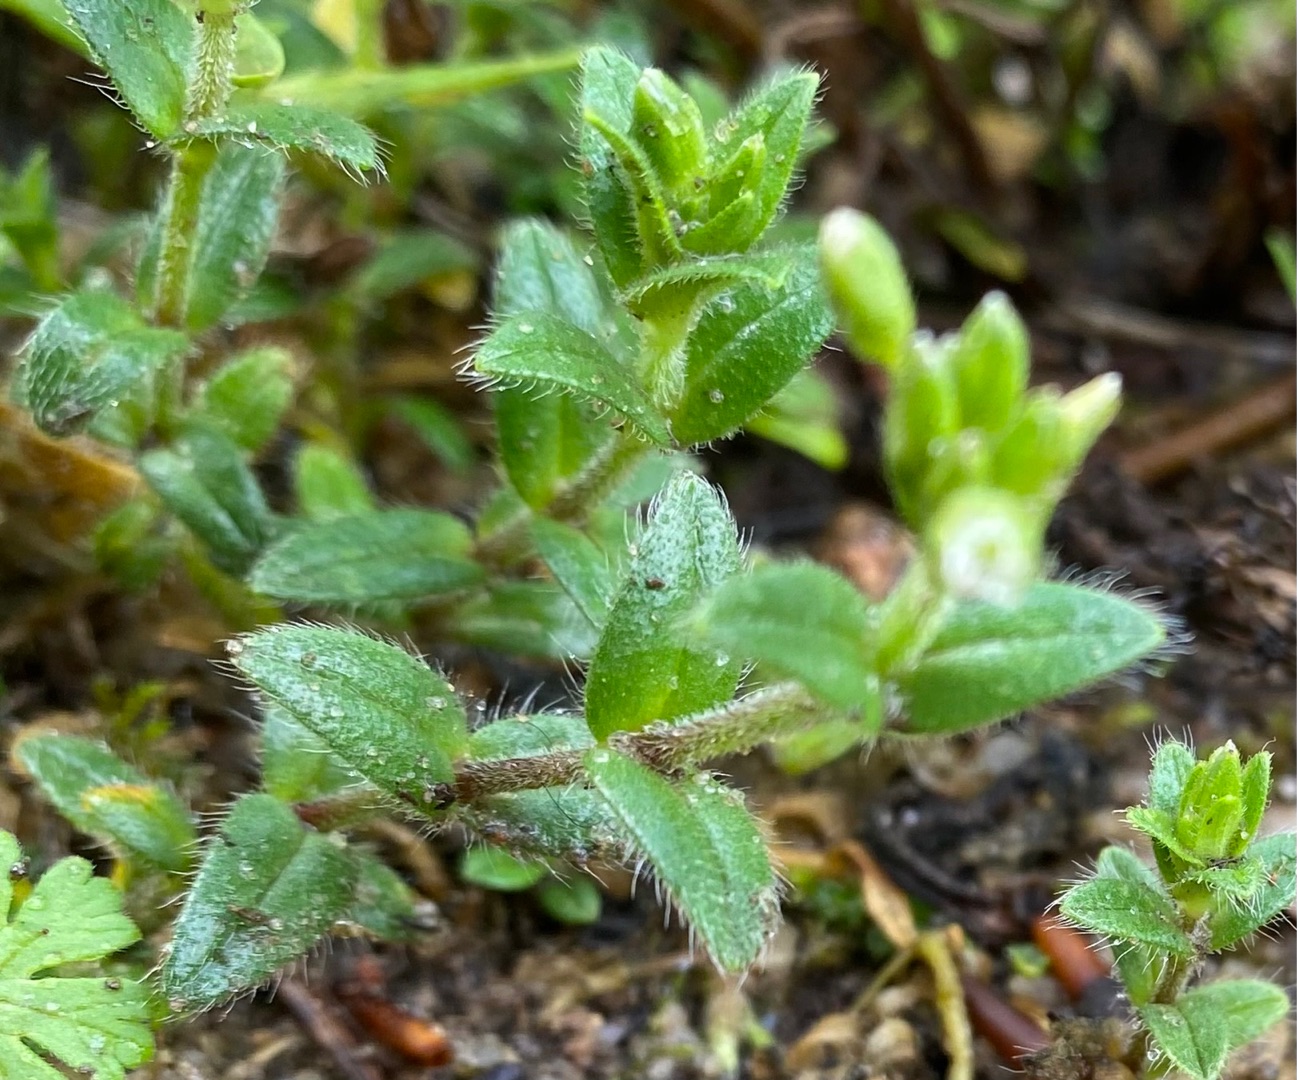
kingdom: Plantae
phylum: Tracheophyta
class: Magnoliopsida
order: Caryophyllales
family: Caryophyllaceae
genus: Cerastium
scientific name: Cerastium fontanum
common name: Almindelig hønsetarm
